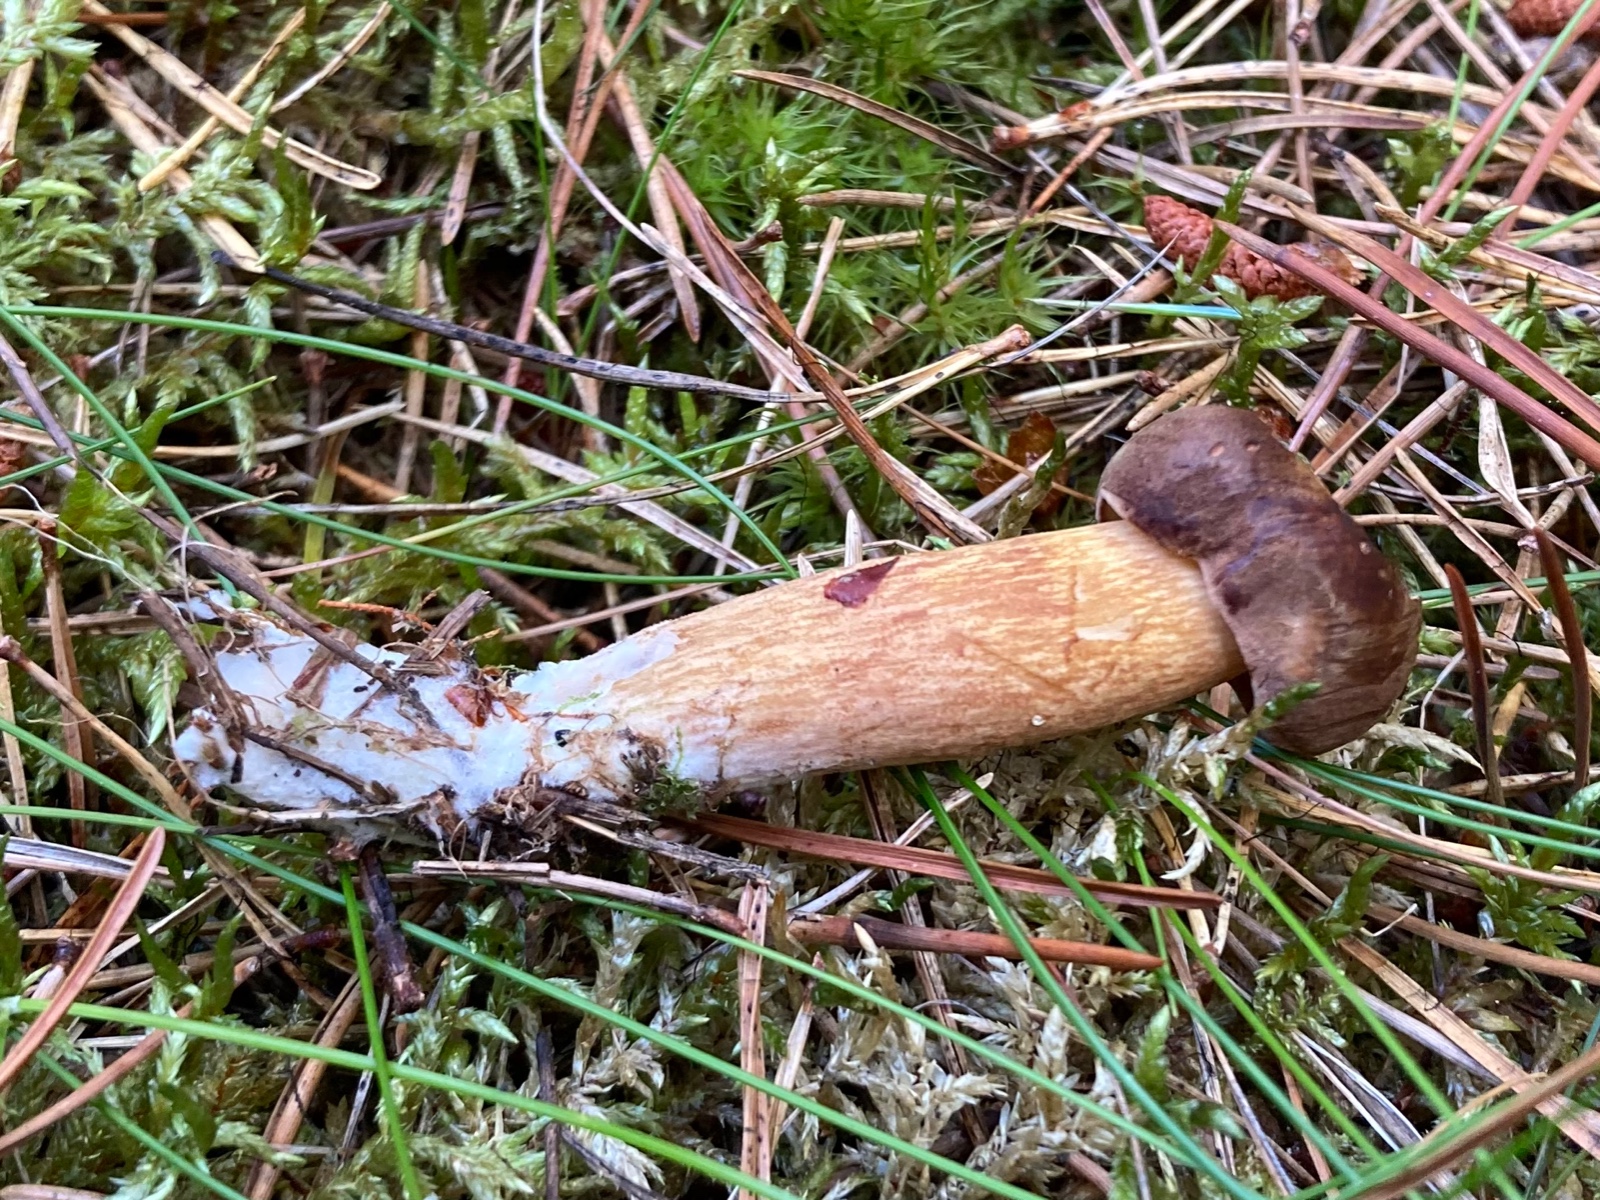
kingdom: Fungi
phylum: Basidiomycota
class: Agaricomycetes
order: Boletales
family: Boletaceae
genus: Imleria
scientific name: Imleria badia
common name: brunstokket rørhat
